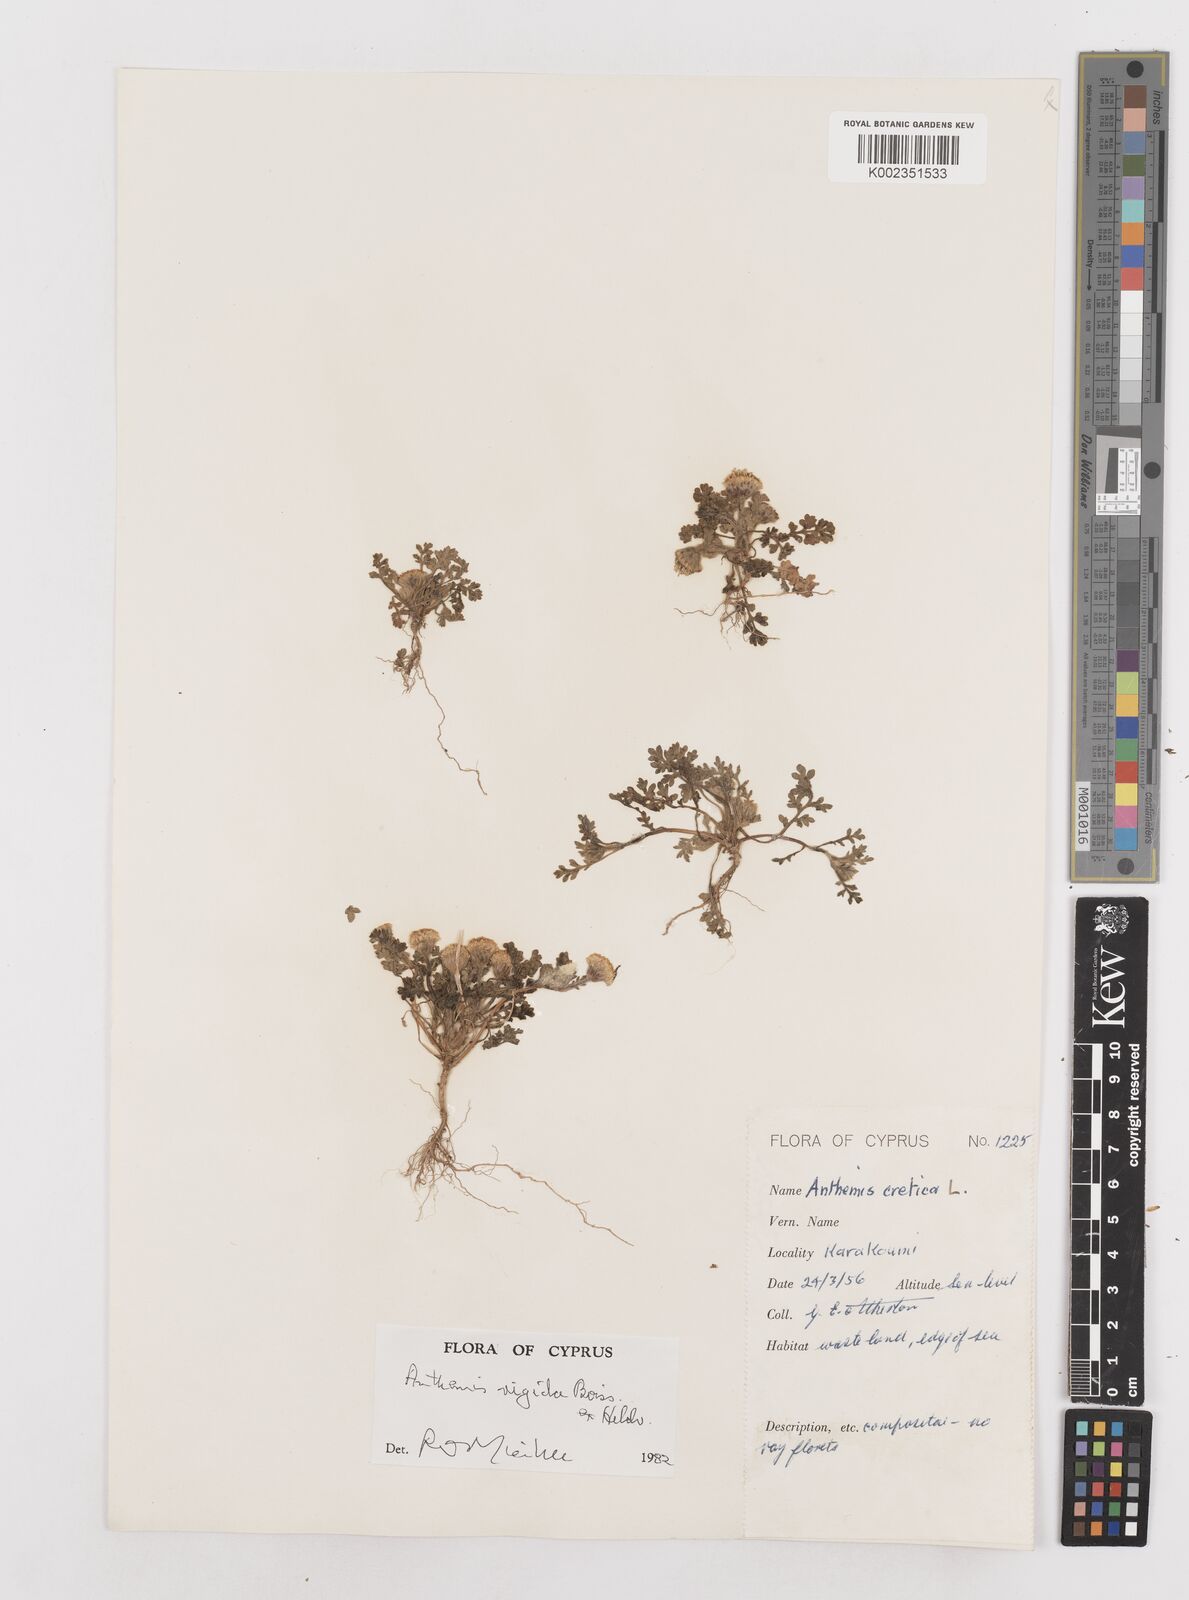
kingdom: Plantae
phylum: Tracheophyta
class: Magnoliopsida
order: Asterales
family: Asteraceae
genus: Anthemis
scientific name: Anthemis rigida
